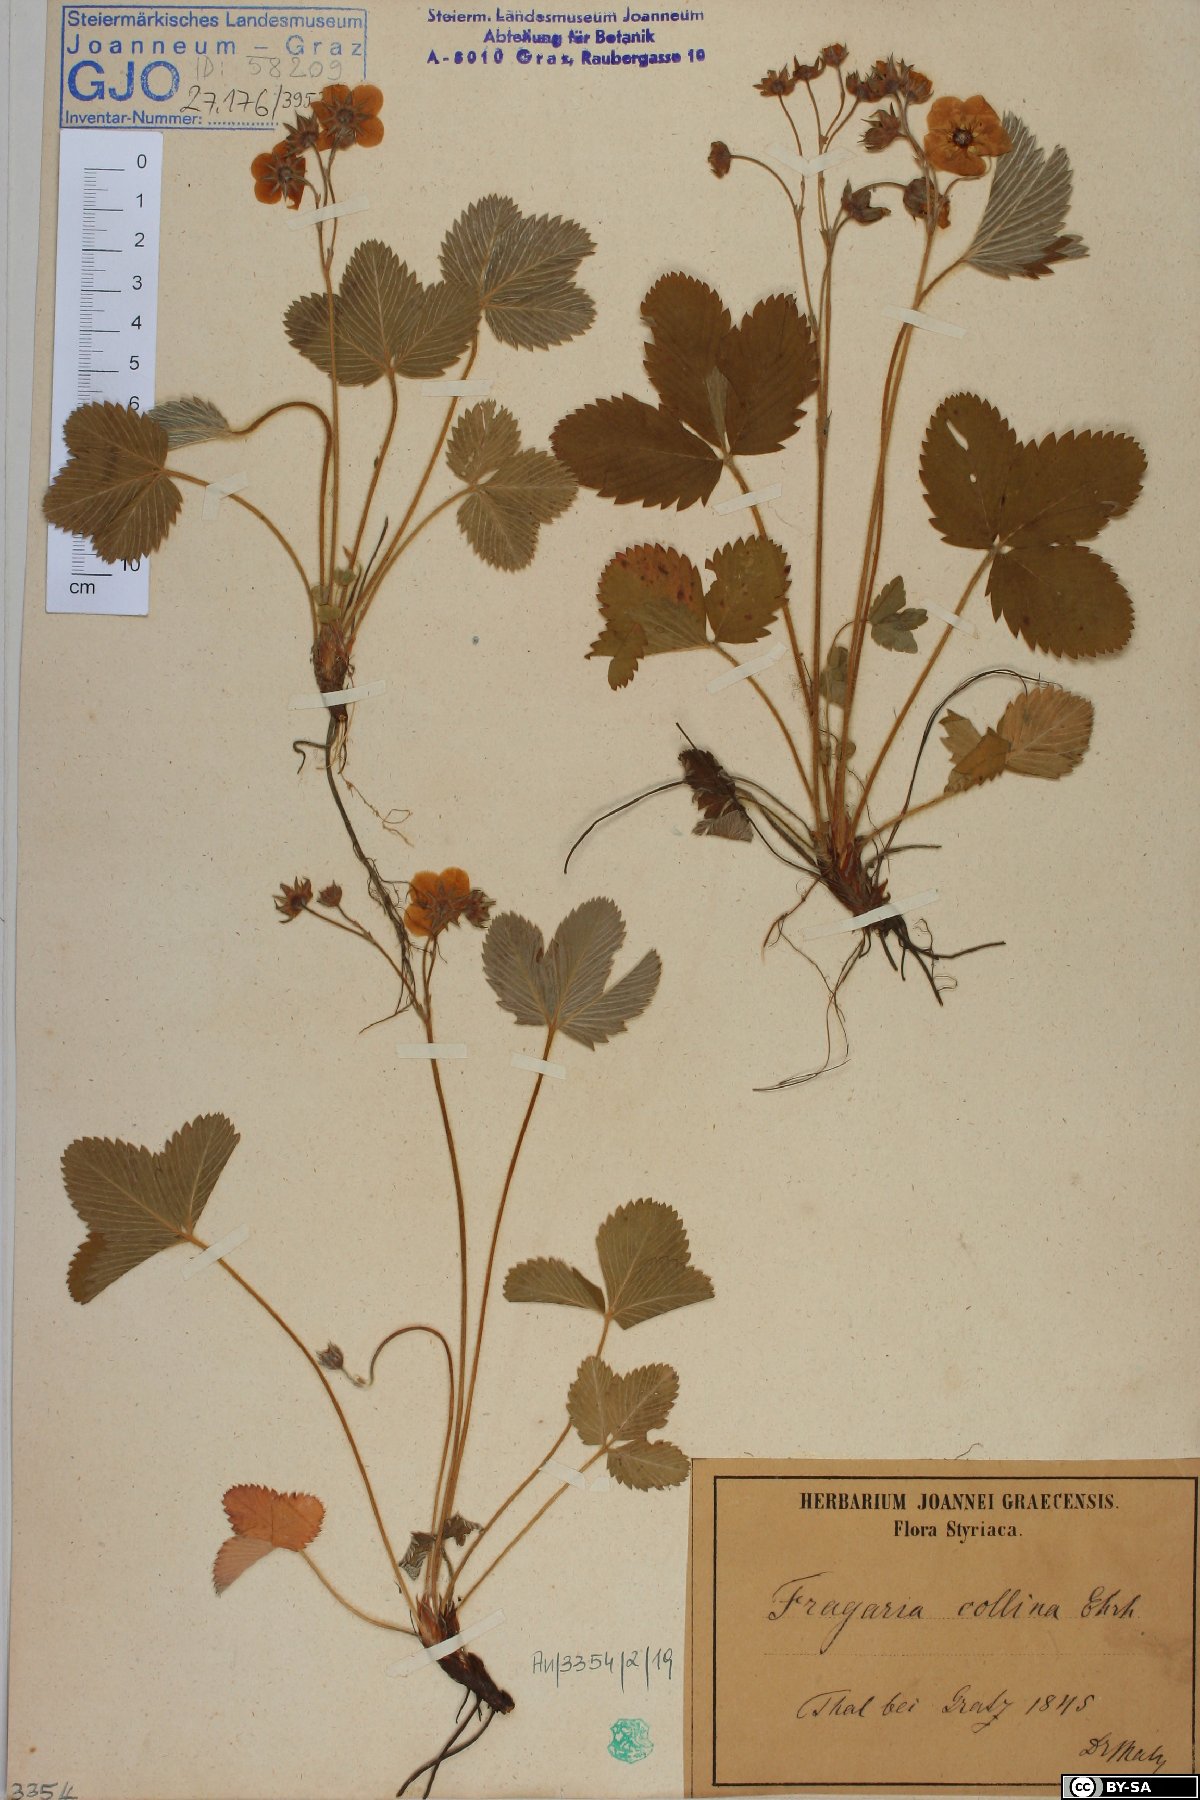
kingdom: Plantae
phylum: Tracheophyta
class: Magnoliopsida
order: Rosales
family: Rosaceae
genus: Fragaria
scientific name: Fragaria viridis
